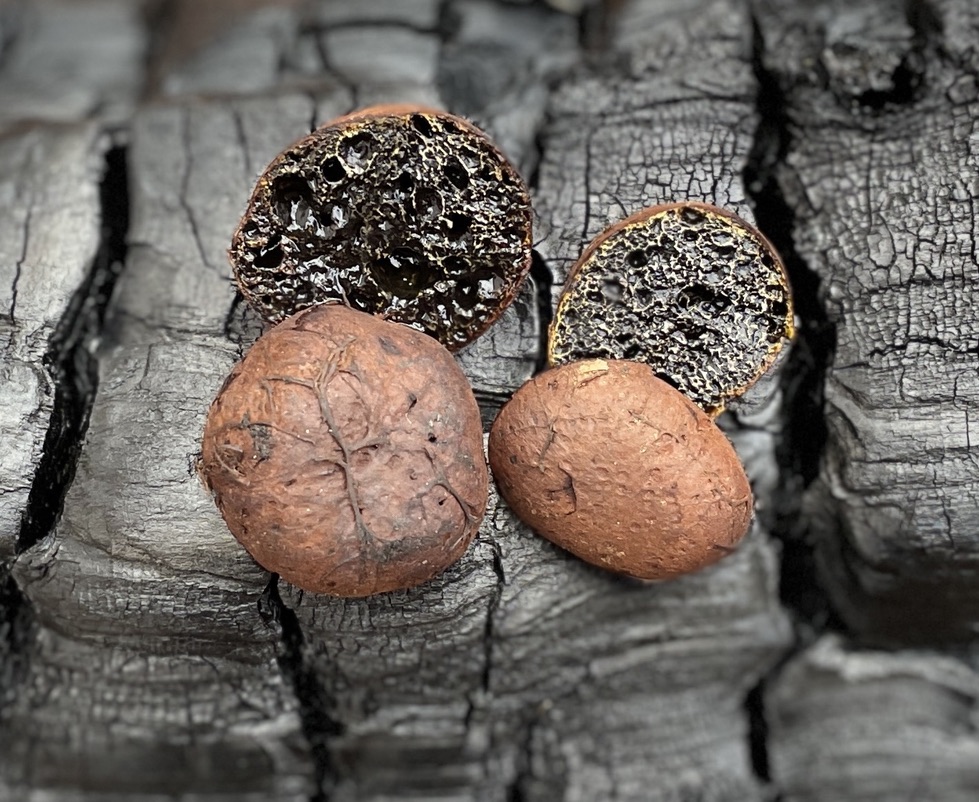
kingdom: Fungi
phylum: Basidiomycota
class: Agaricomycetes
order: Boletales
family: Paxillaceae
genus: Melanogaster
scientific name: Melanogaster tuberiformis
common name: stor slimtrøffel
